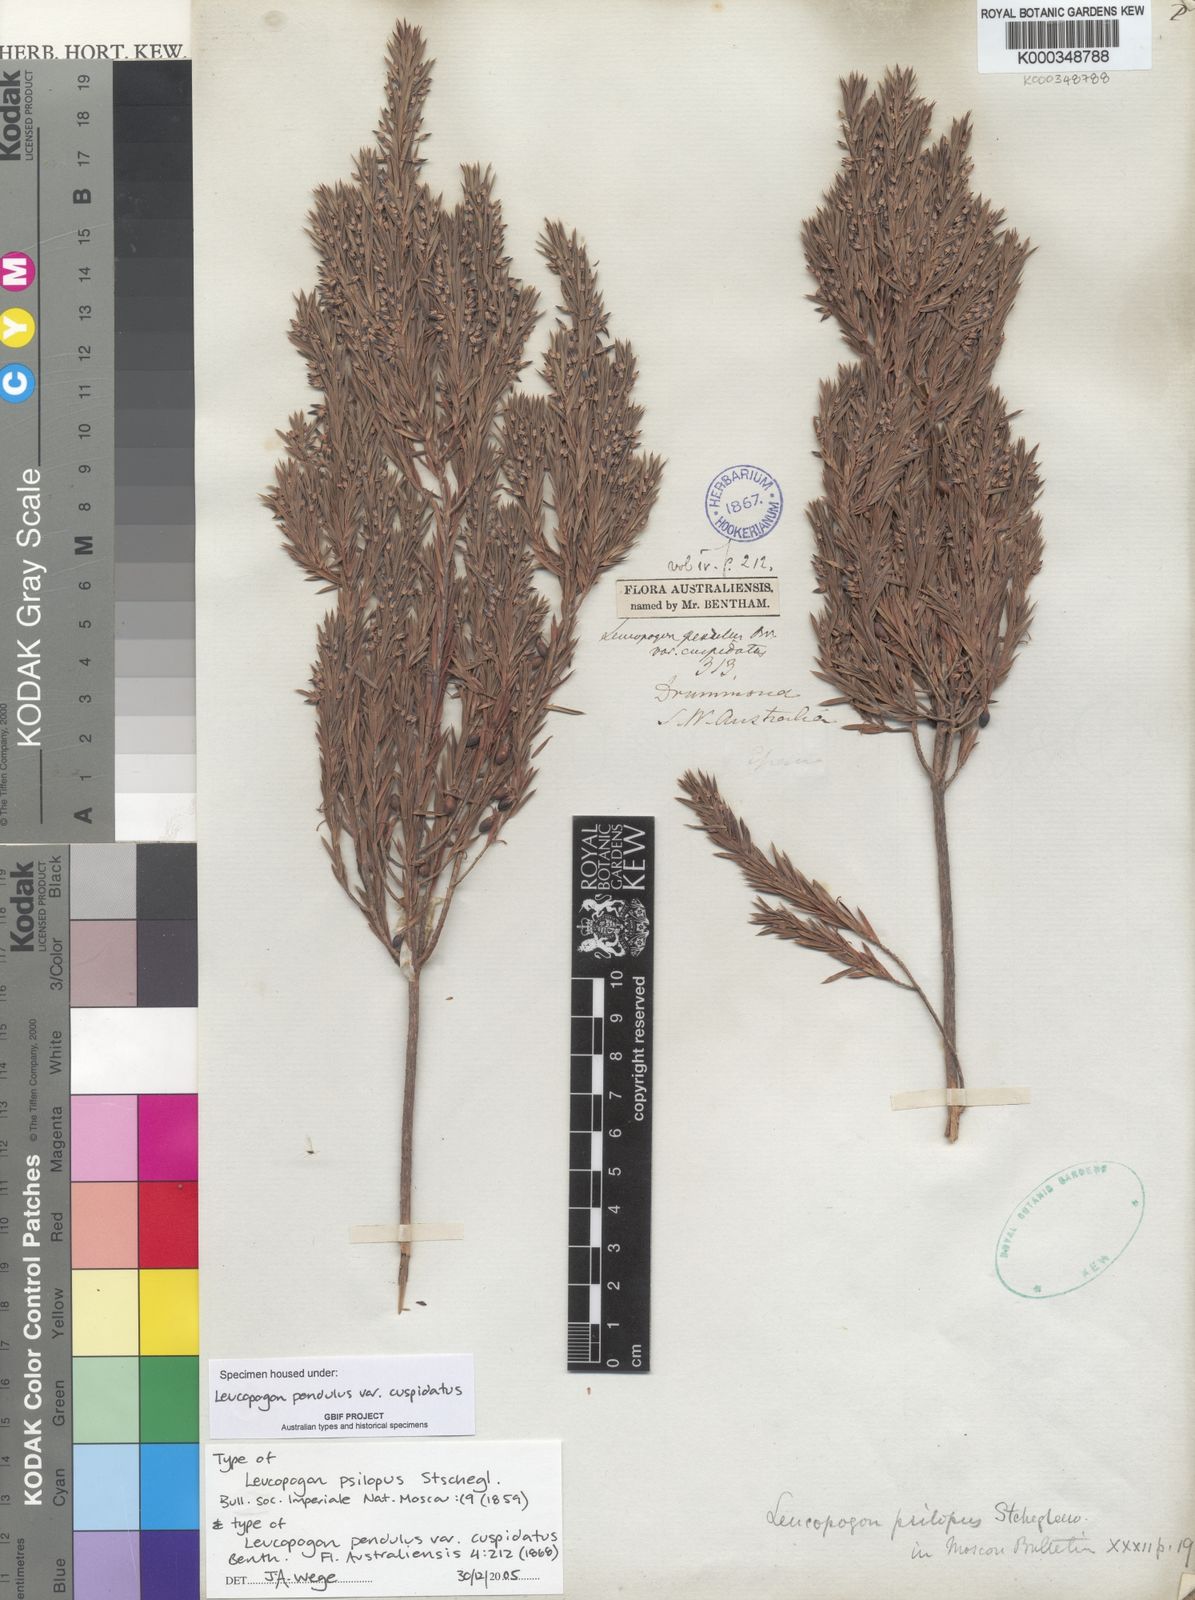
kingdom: Plantae
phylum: Tracheophyta
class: Magnoliopsida
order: Ericales
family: Ericaceae
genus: Styphelia
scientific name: Styphelia pendula
